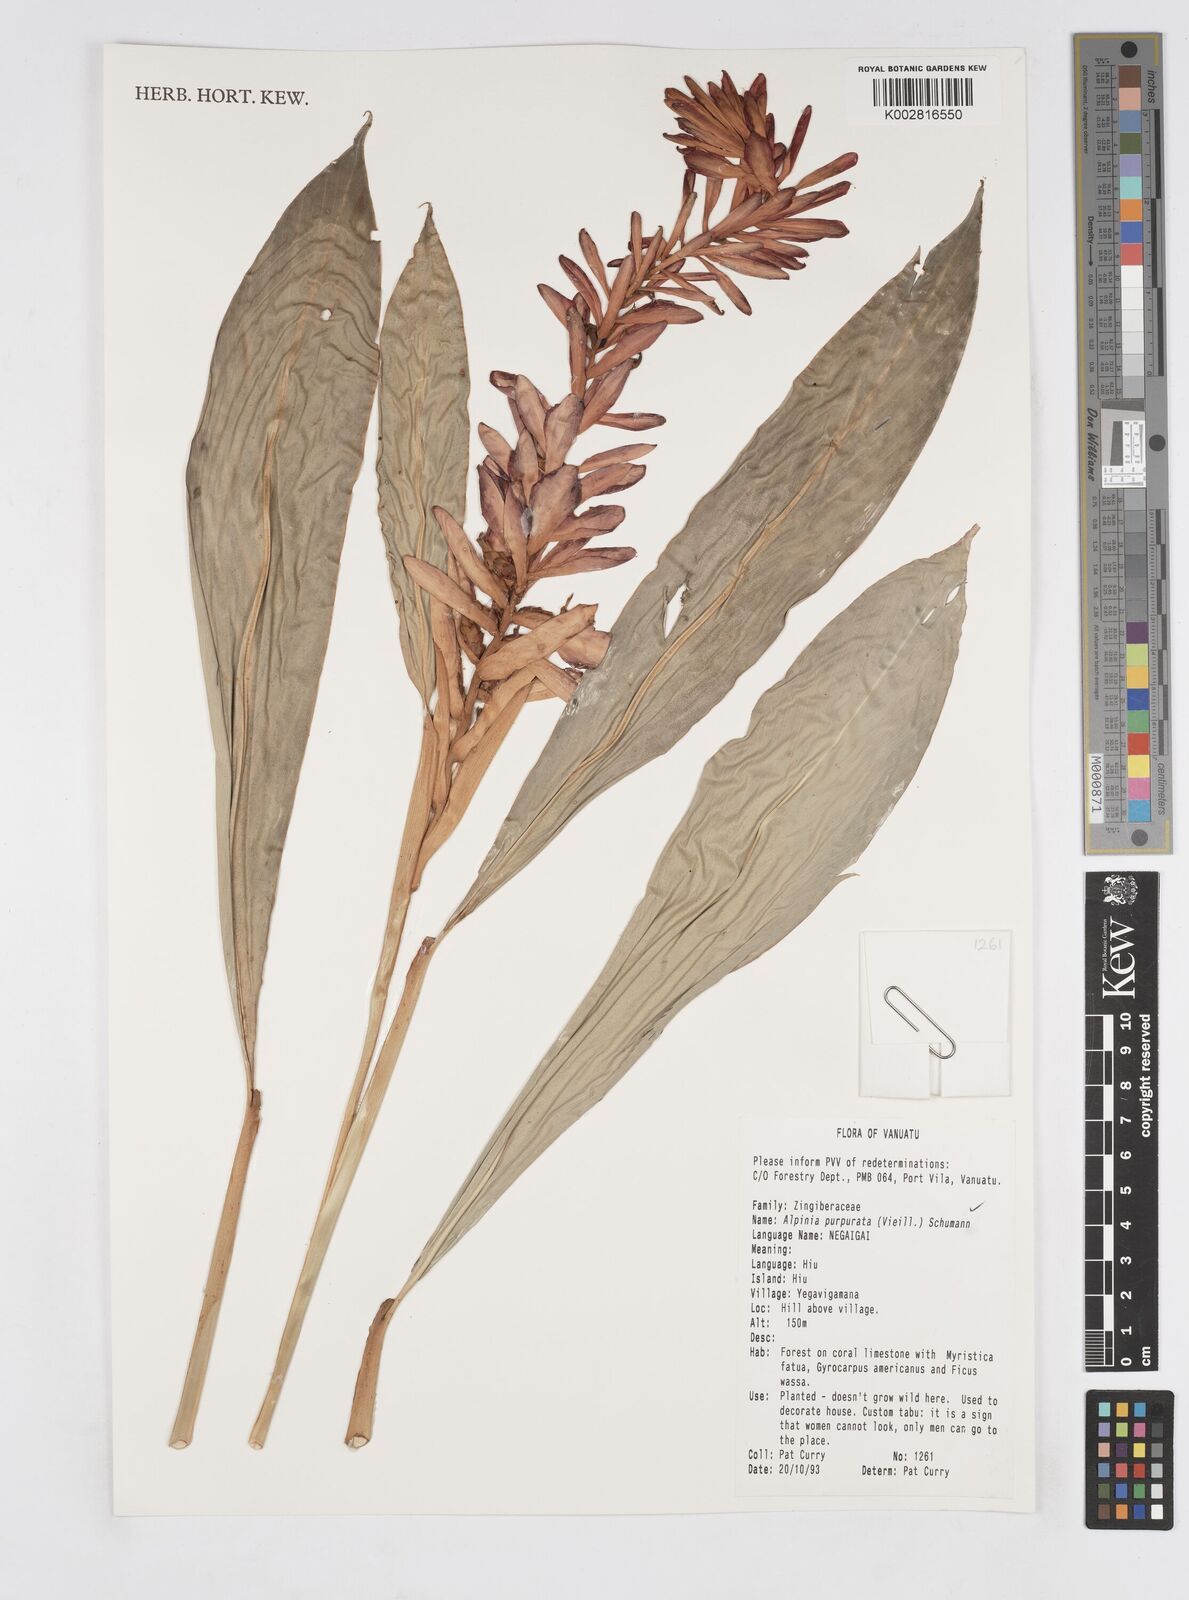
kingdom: Plantae
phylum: Tracheophyta
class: Liliopsida
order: Zingiberales
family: Zingiberaceae
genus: Alpinia
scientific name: Alpinia purpurata
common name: Red ginger
